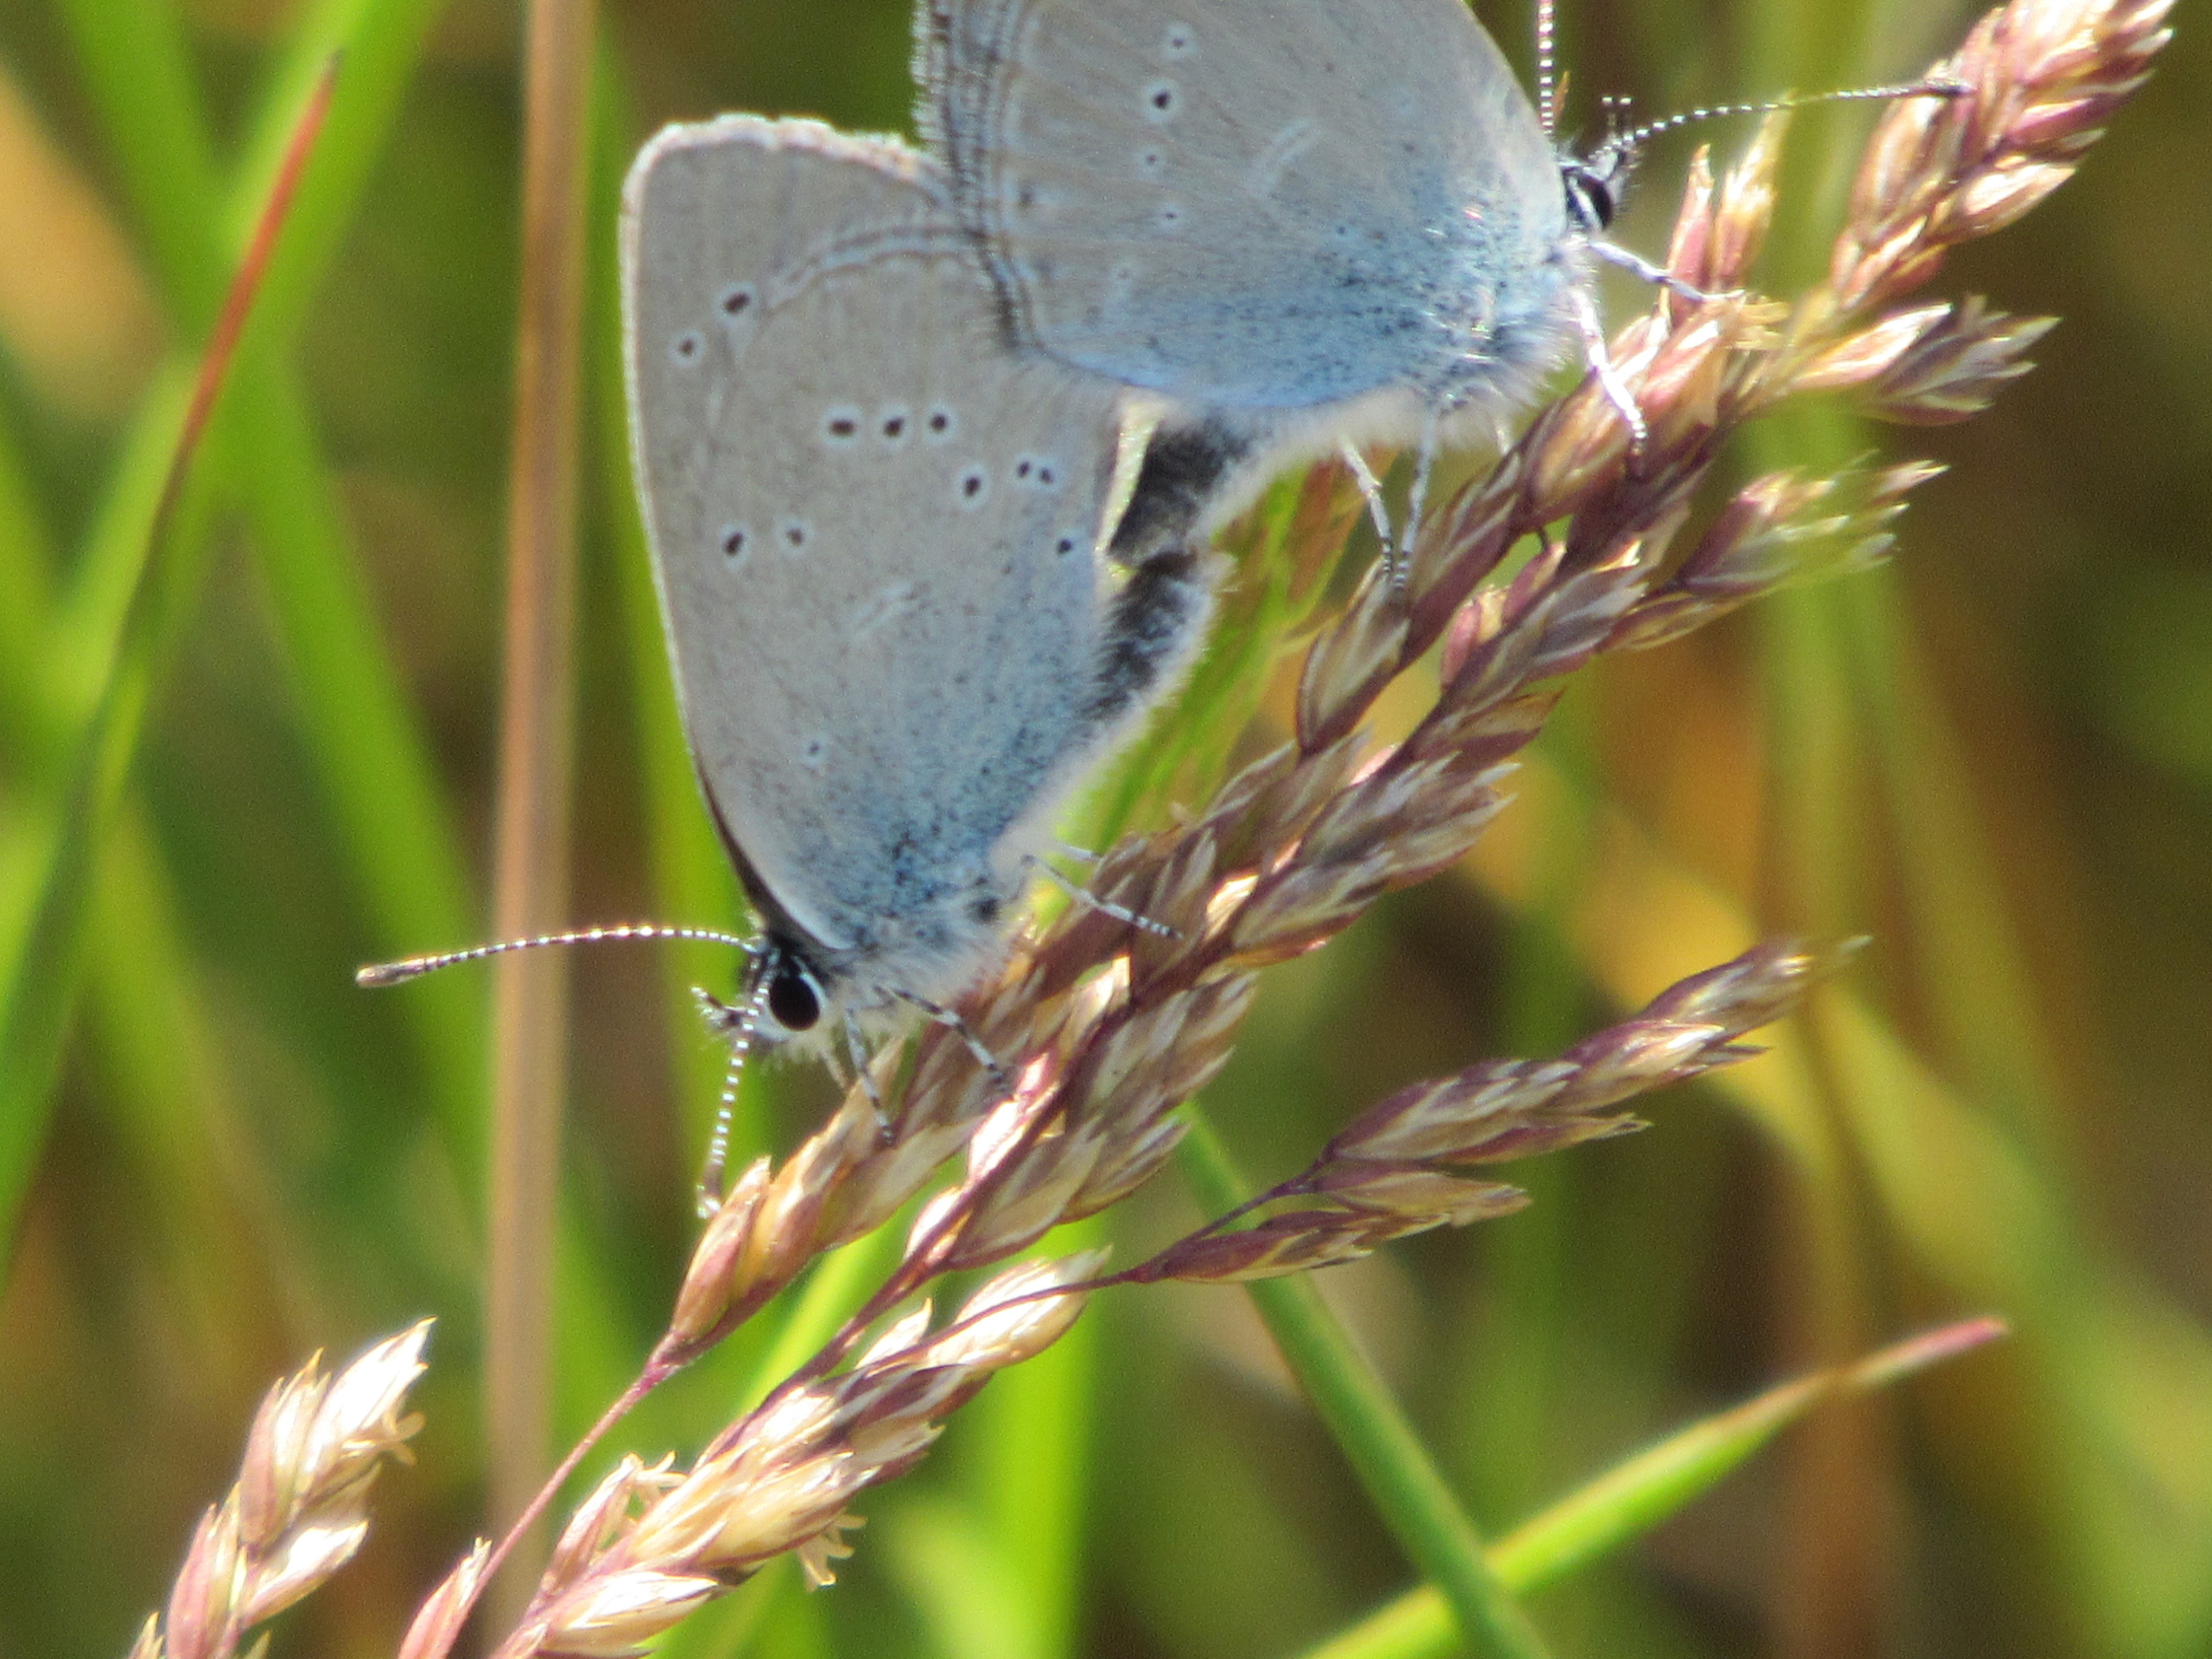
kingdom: Animalia
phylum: Arthropoda
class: Insecta
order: Lepidoptera
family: Lycaenidae
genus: Cupido
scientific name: Cupido minimus
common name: Dværgblåfugl
